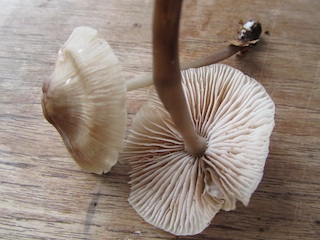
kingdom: Fungi
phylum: Basidiomycota
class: Agaricomycetes
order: Agaricales
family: Mycenaceae
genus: Mycena
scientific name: Mycena galericulata
